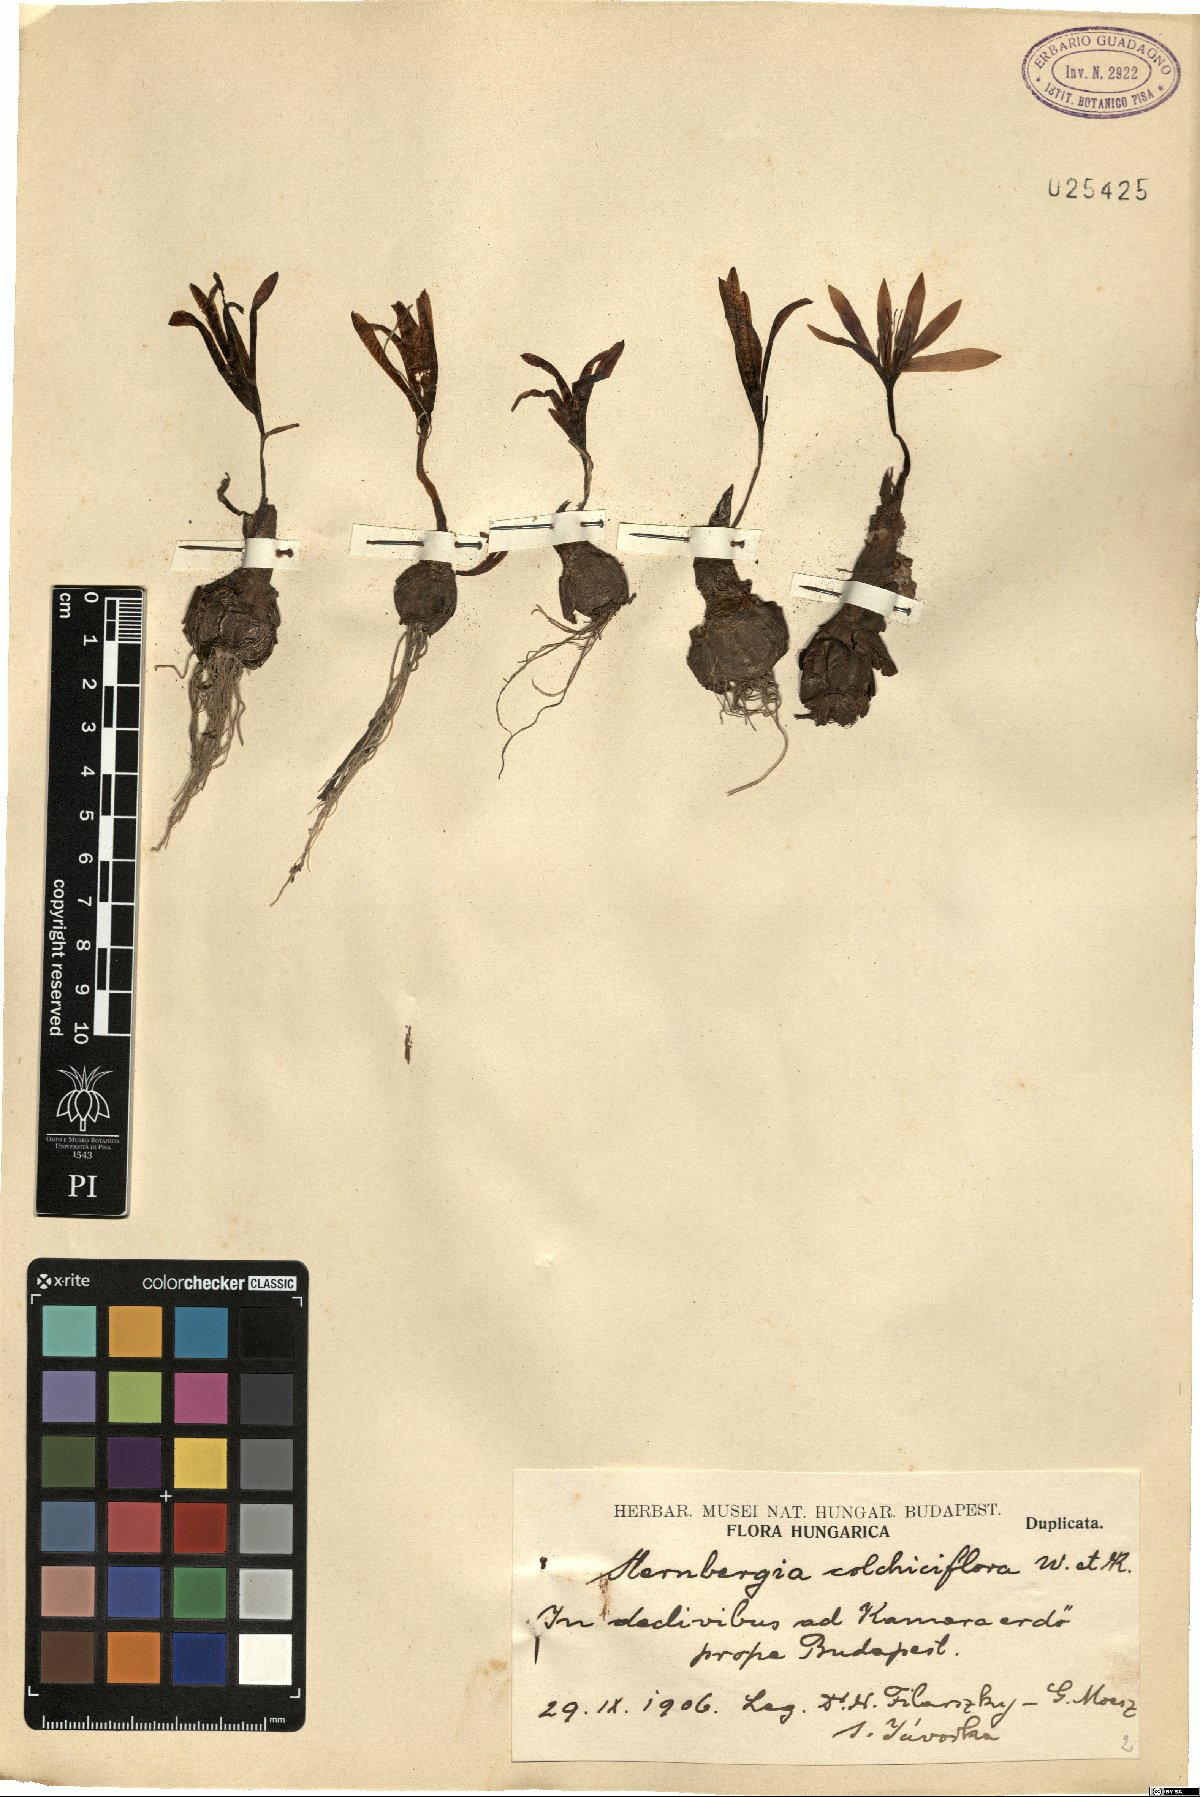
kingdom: Plantae
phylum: Tracheophyta
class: Liliopsida
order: Asparagales
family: Amaryllidaceae
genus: Sternbergia
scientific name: Sternbergia colchiciflora
